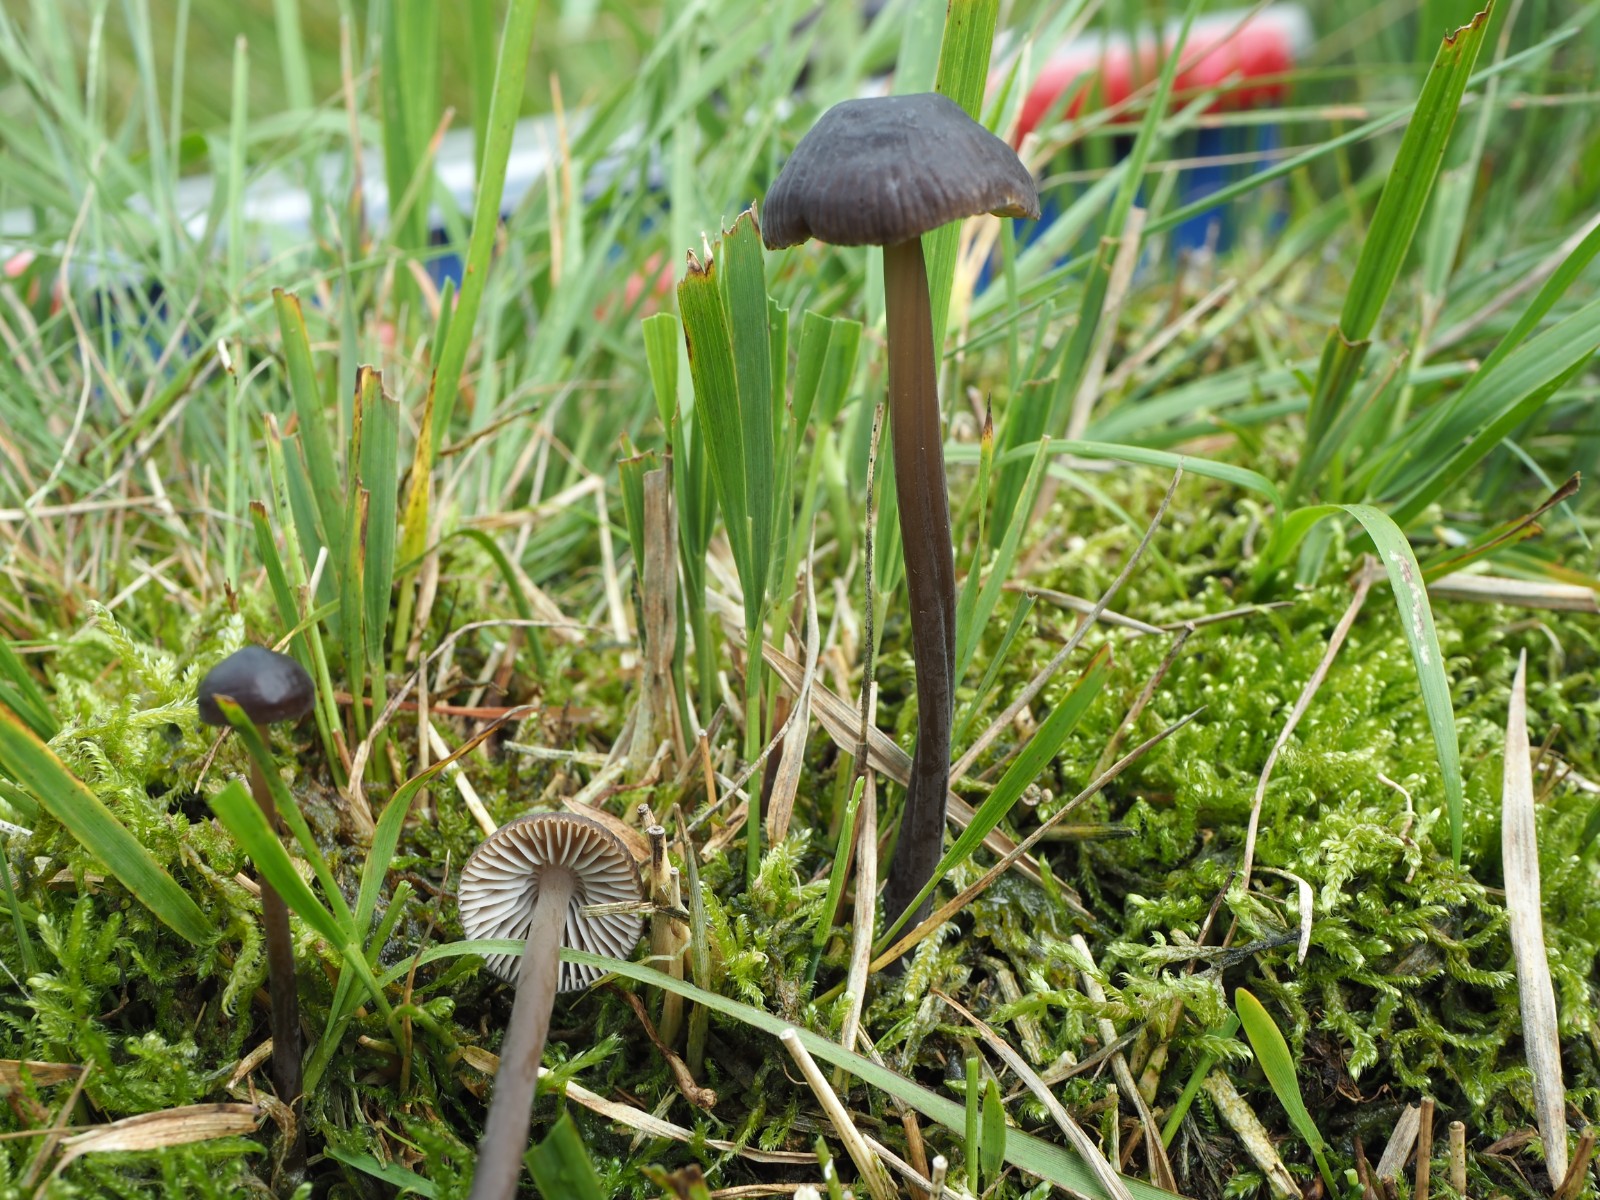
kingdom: Fungi
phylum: Basidiomycota
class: Agaricomycetes
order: Agaricales
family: Mycenaceae
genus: Mycena
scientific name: Mycena megaspora
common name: brusk-huesvamp
